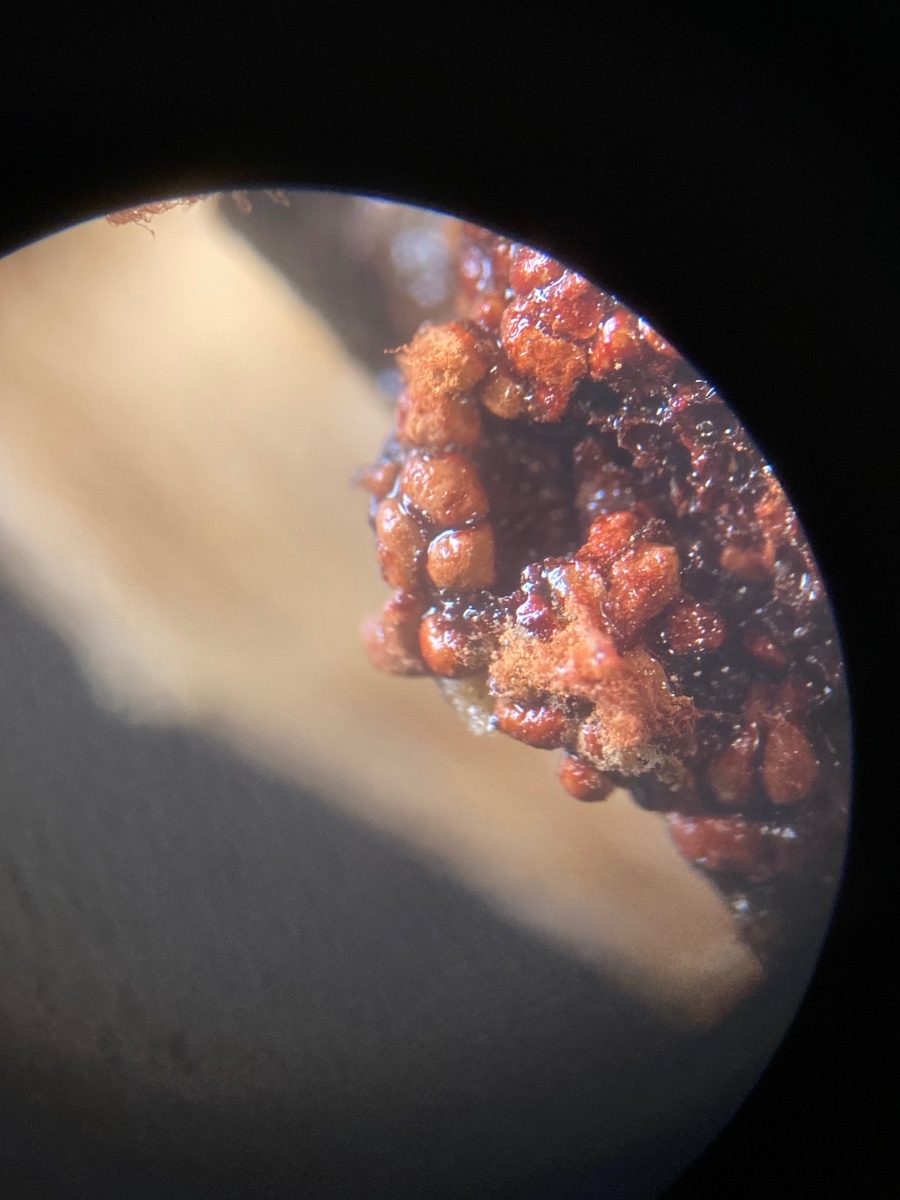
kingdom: Protozoa
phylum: Mycetozoa
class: Myxomycetes
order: Trichiales
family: Trichiaceae
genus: Metatrichia
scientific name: Metatrichia vesparia
